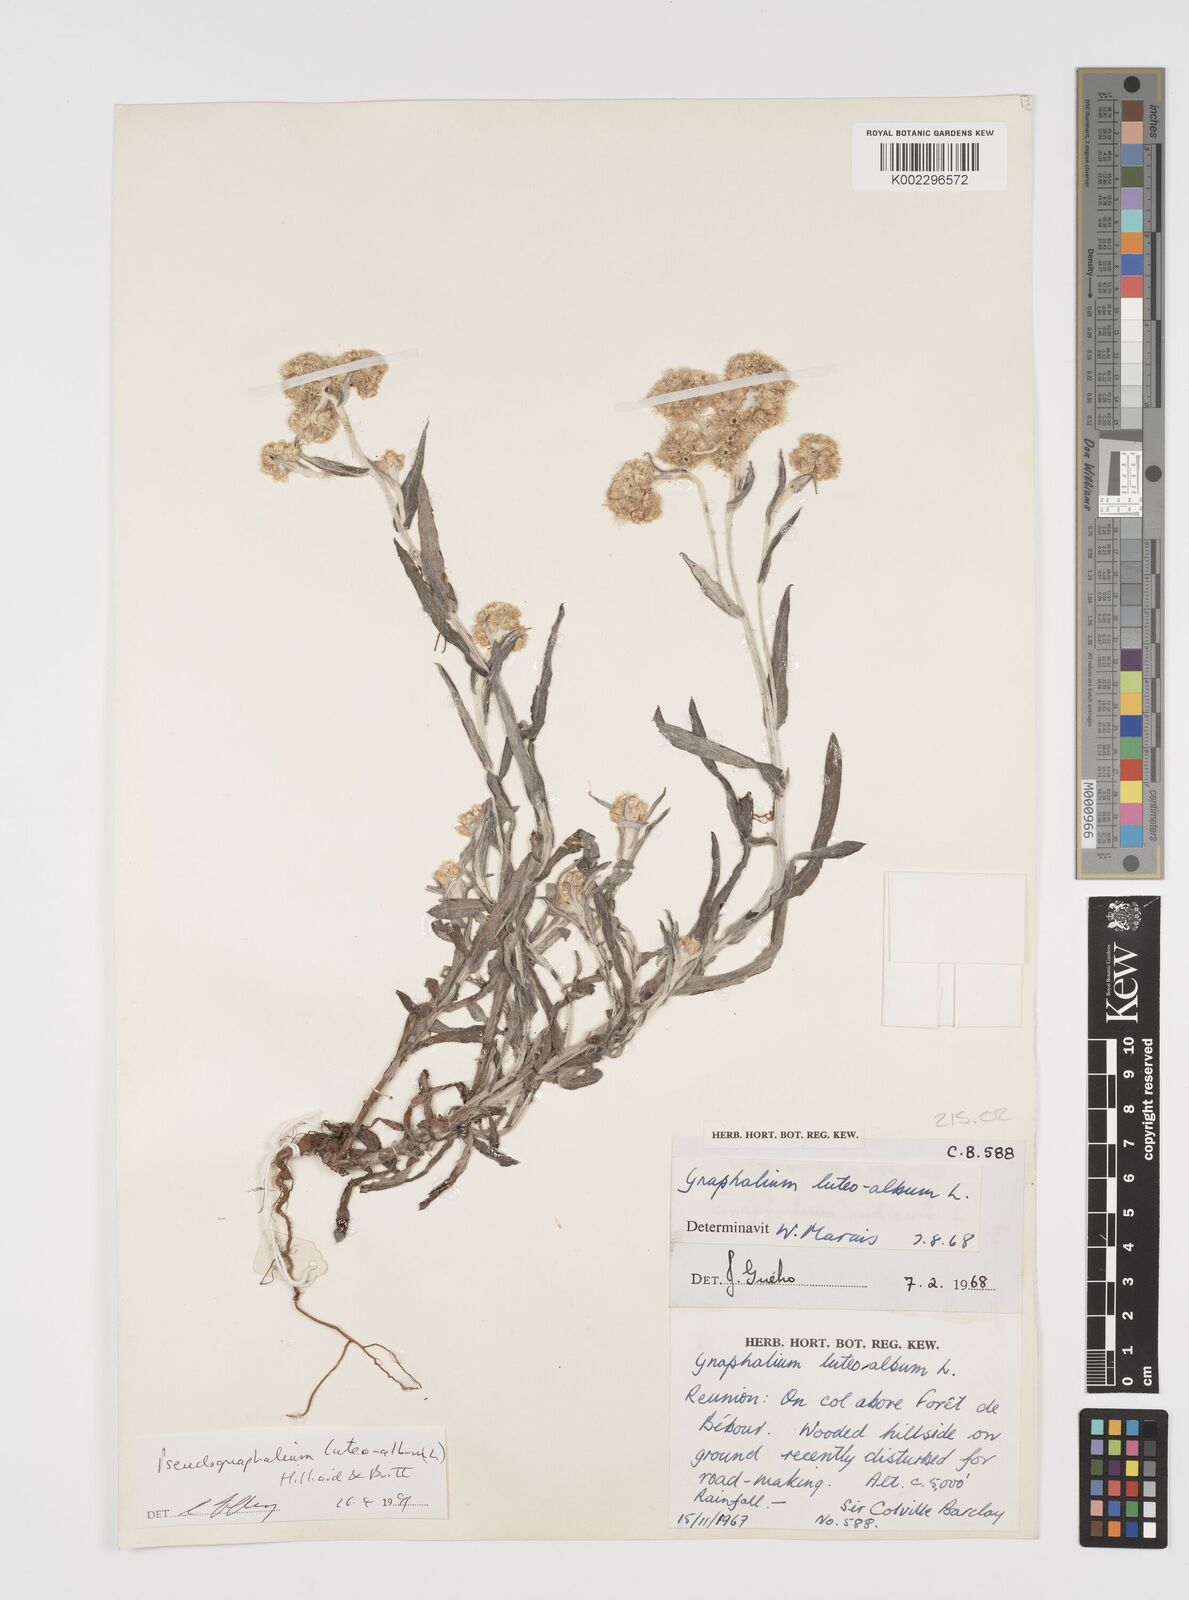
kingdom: Plantae
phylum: Tracheophyta
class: Magnoliopsida
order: Asterales
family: Asteraceae
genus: Helichrysum
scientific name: Helichrysum luteoalbum
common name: Daisy
